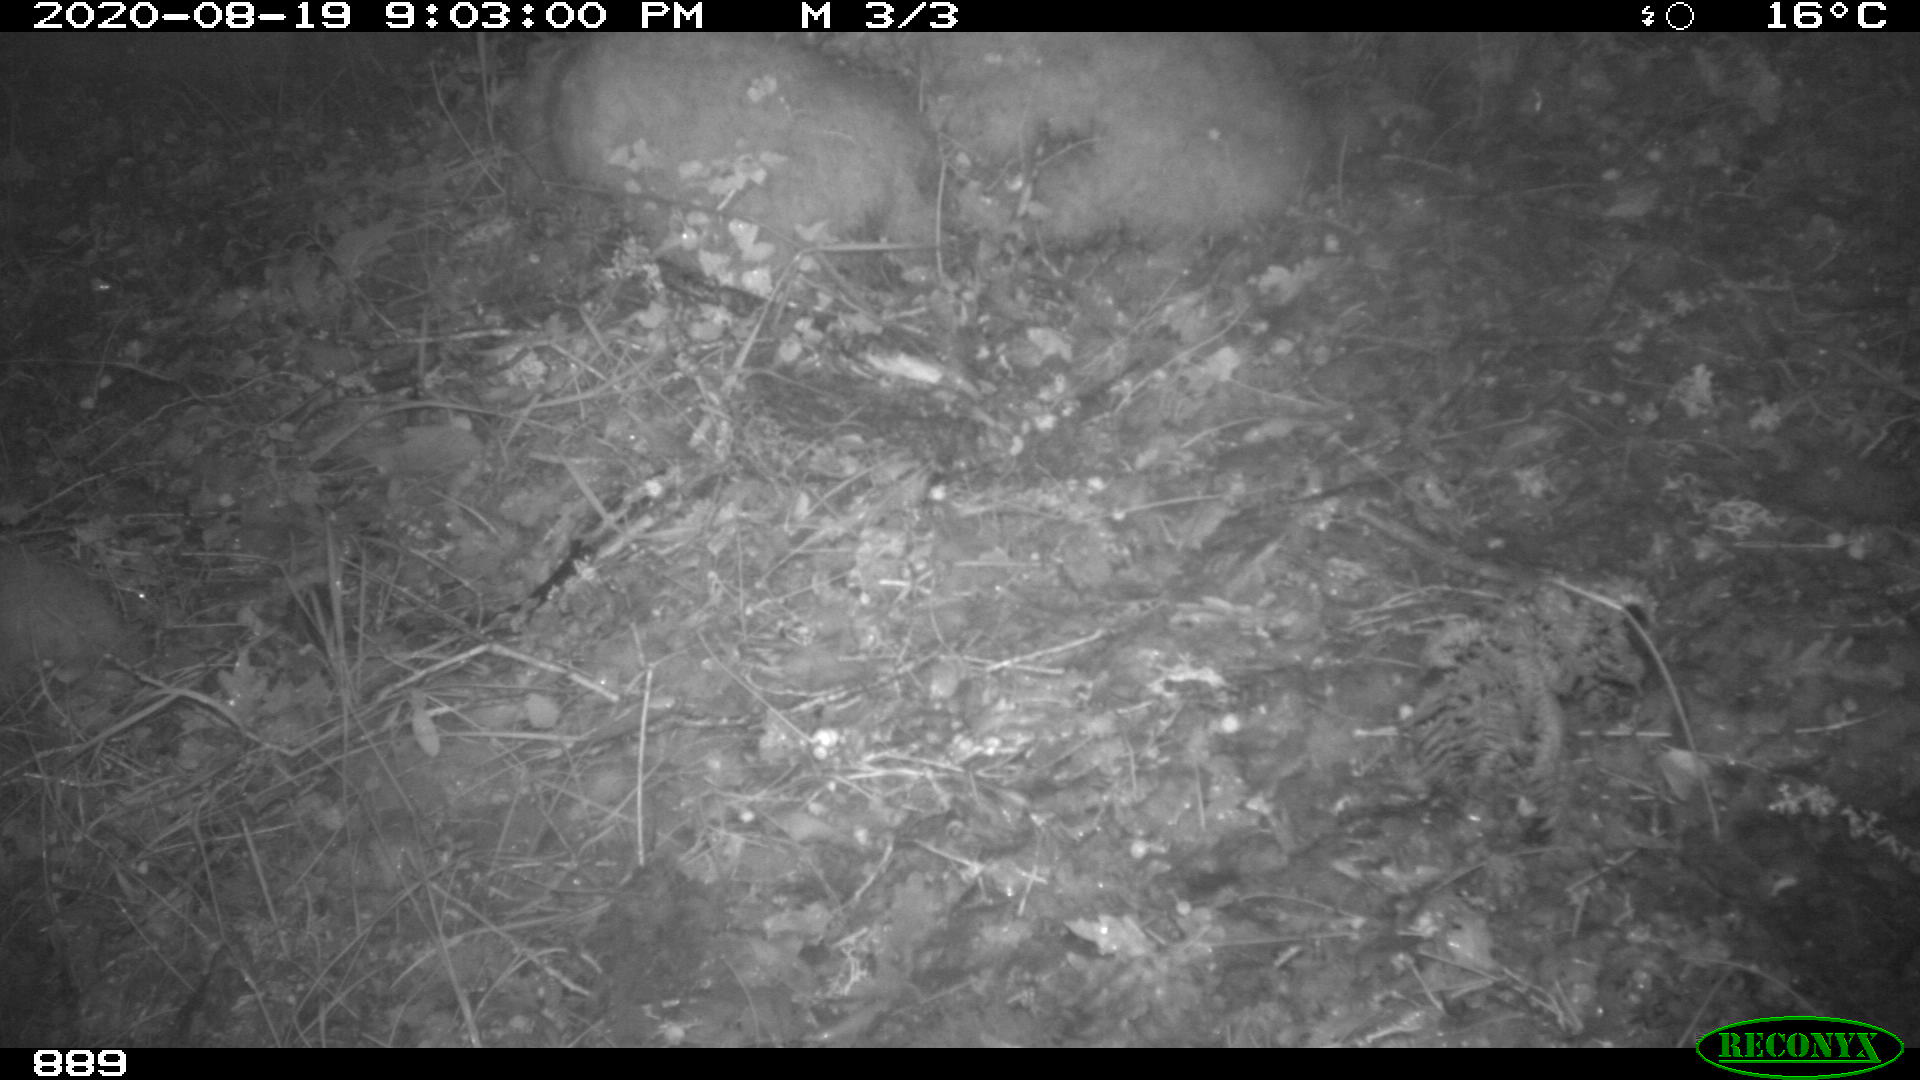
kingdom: Animalia
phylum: Chordata
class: Mammalia
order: Artiodactyla
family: Suidae
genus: Sus
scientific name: Sus scrofa
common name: Wild boar
